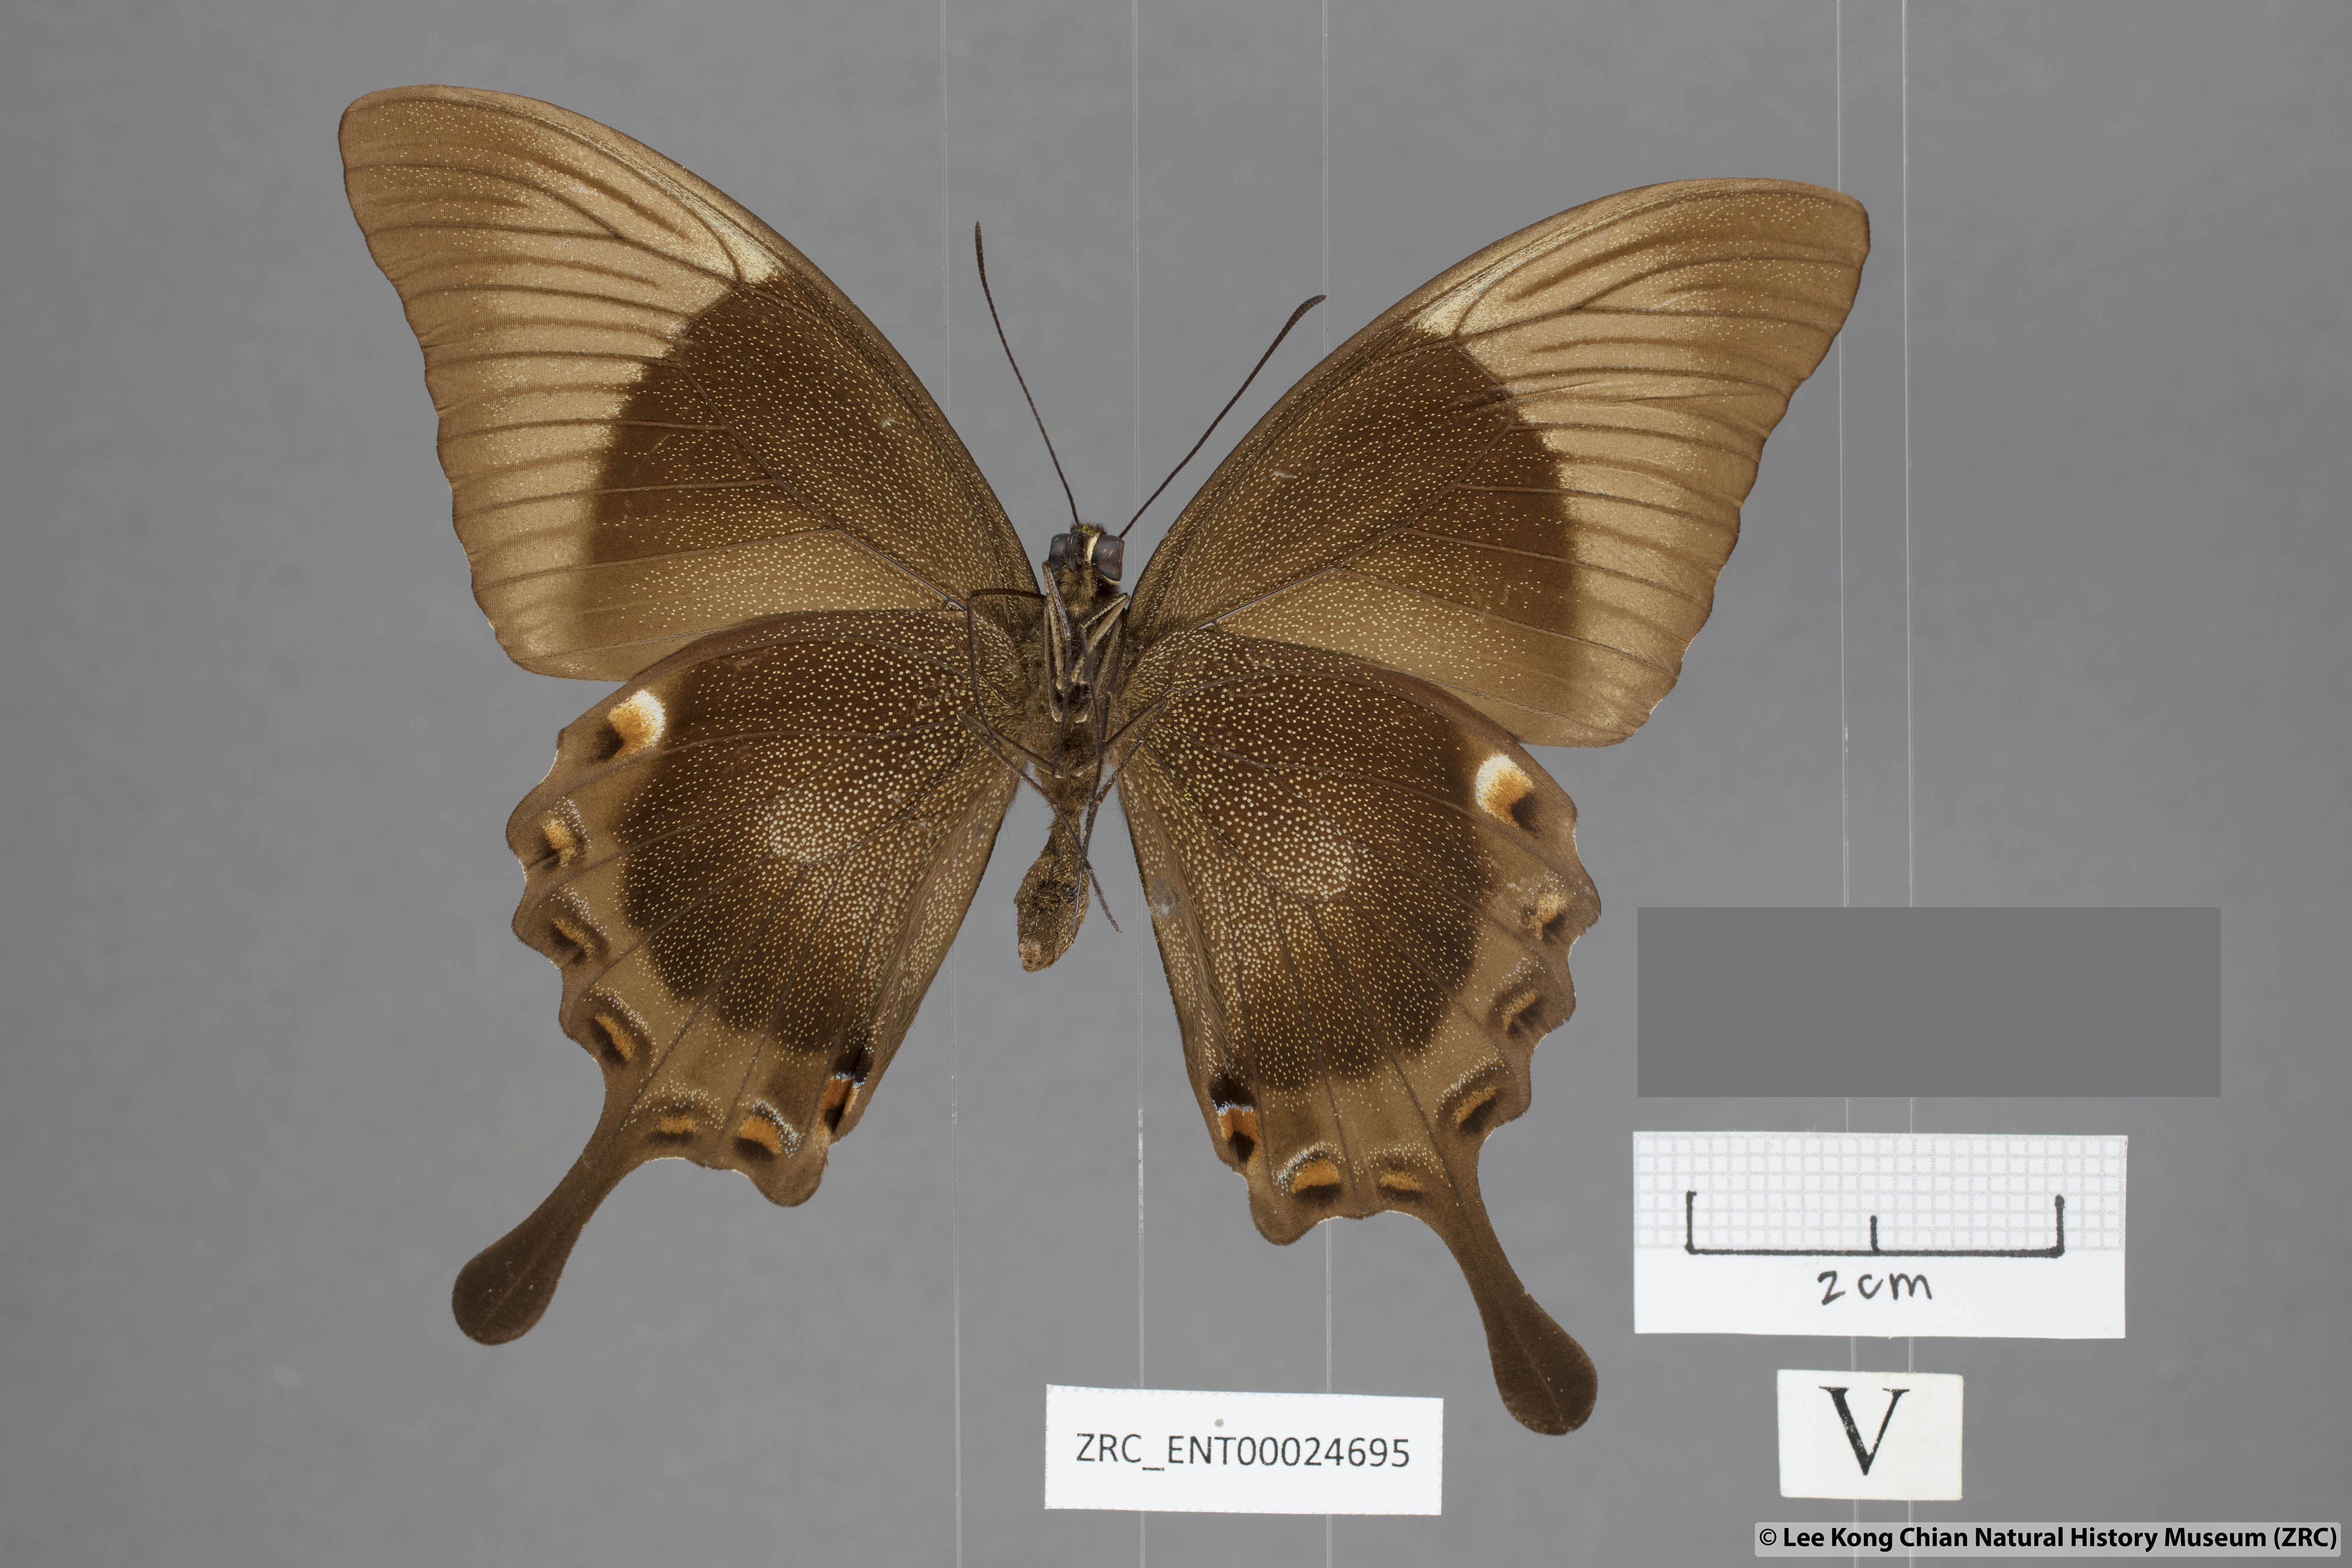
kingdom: Animalia
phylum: Arthropoda
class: Insecta
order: Lepidoptera
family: Papilionidae
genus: Papilio
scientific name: Papilio palinurus
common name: Banded peacock
